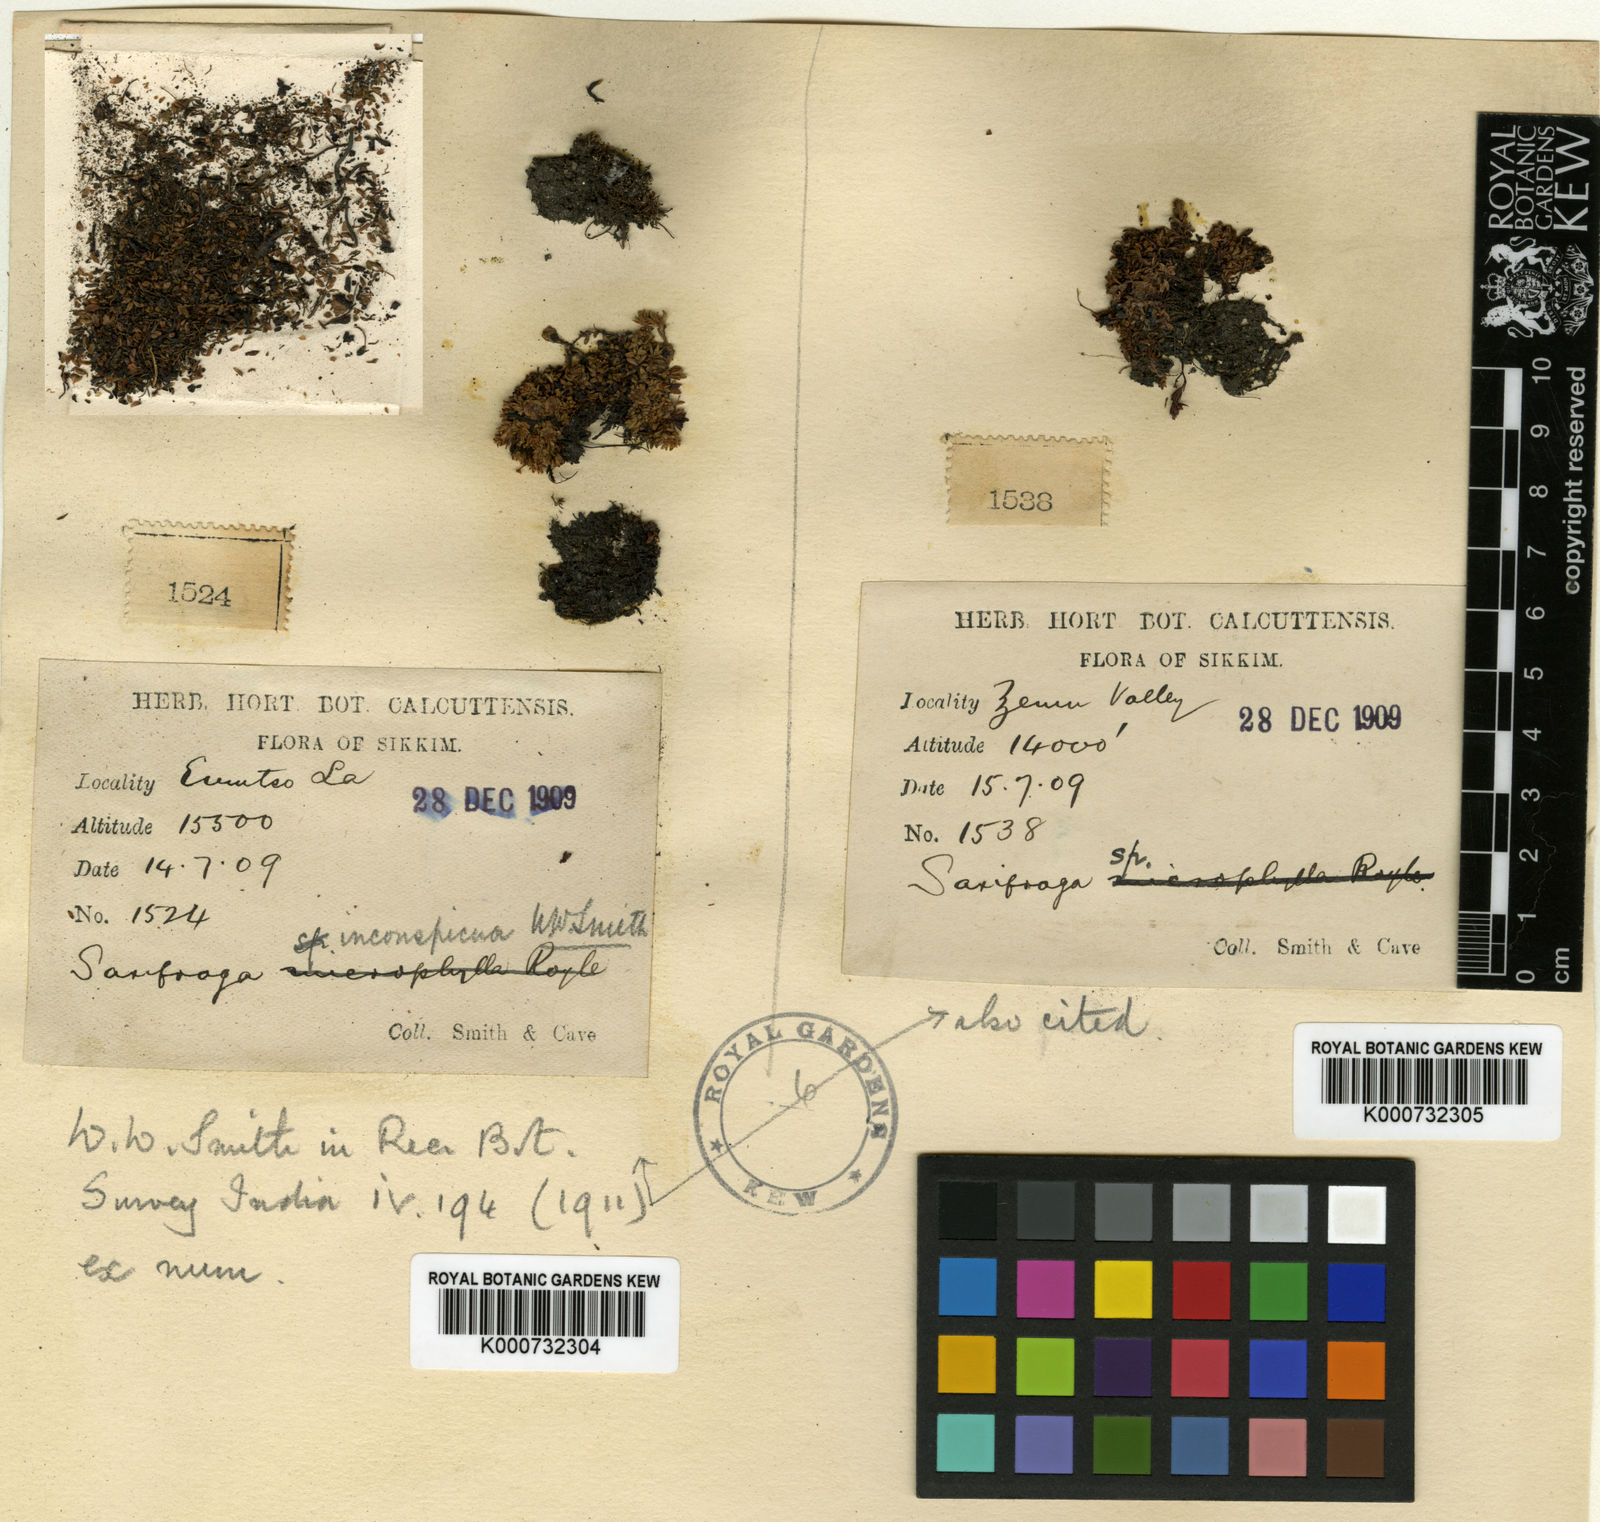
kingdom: Plantae
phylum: Tracheophyta
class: Magnoliopsida
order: Saxifragales
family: Saxifragaceae
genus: Saxifraga
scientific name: Saxifraga inconspicua
